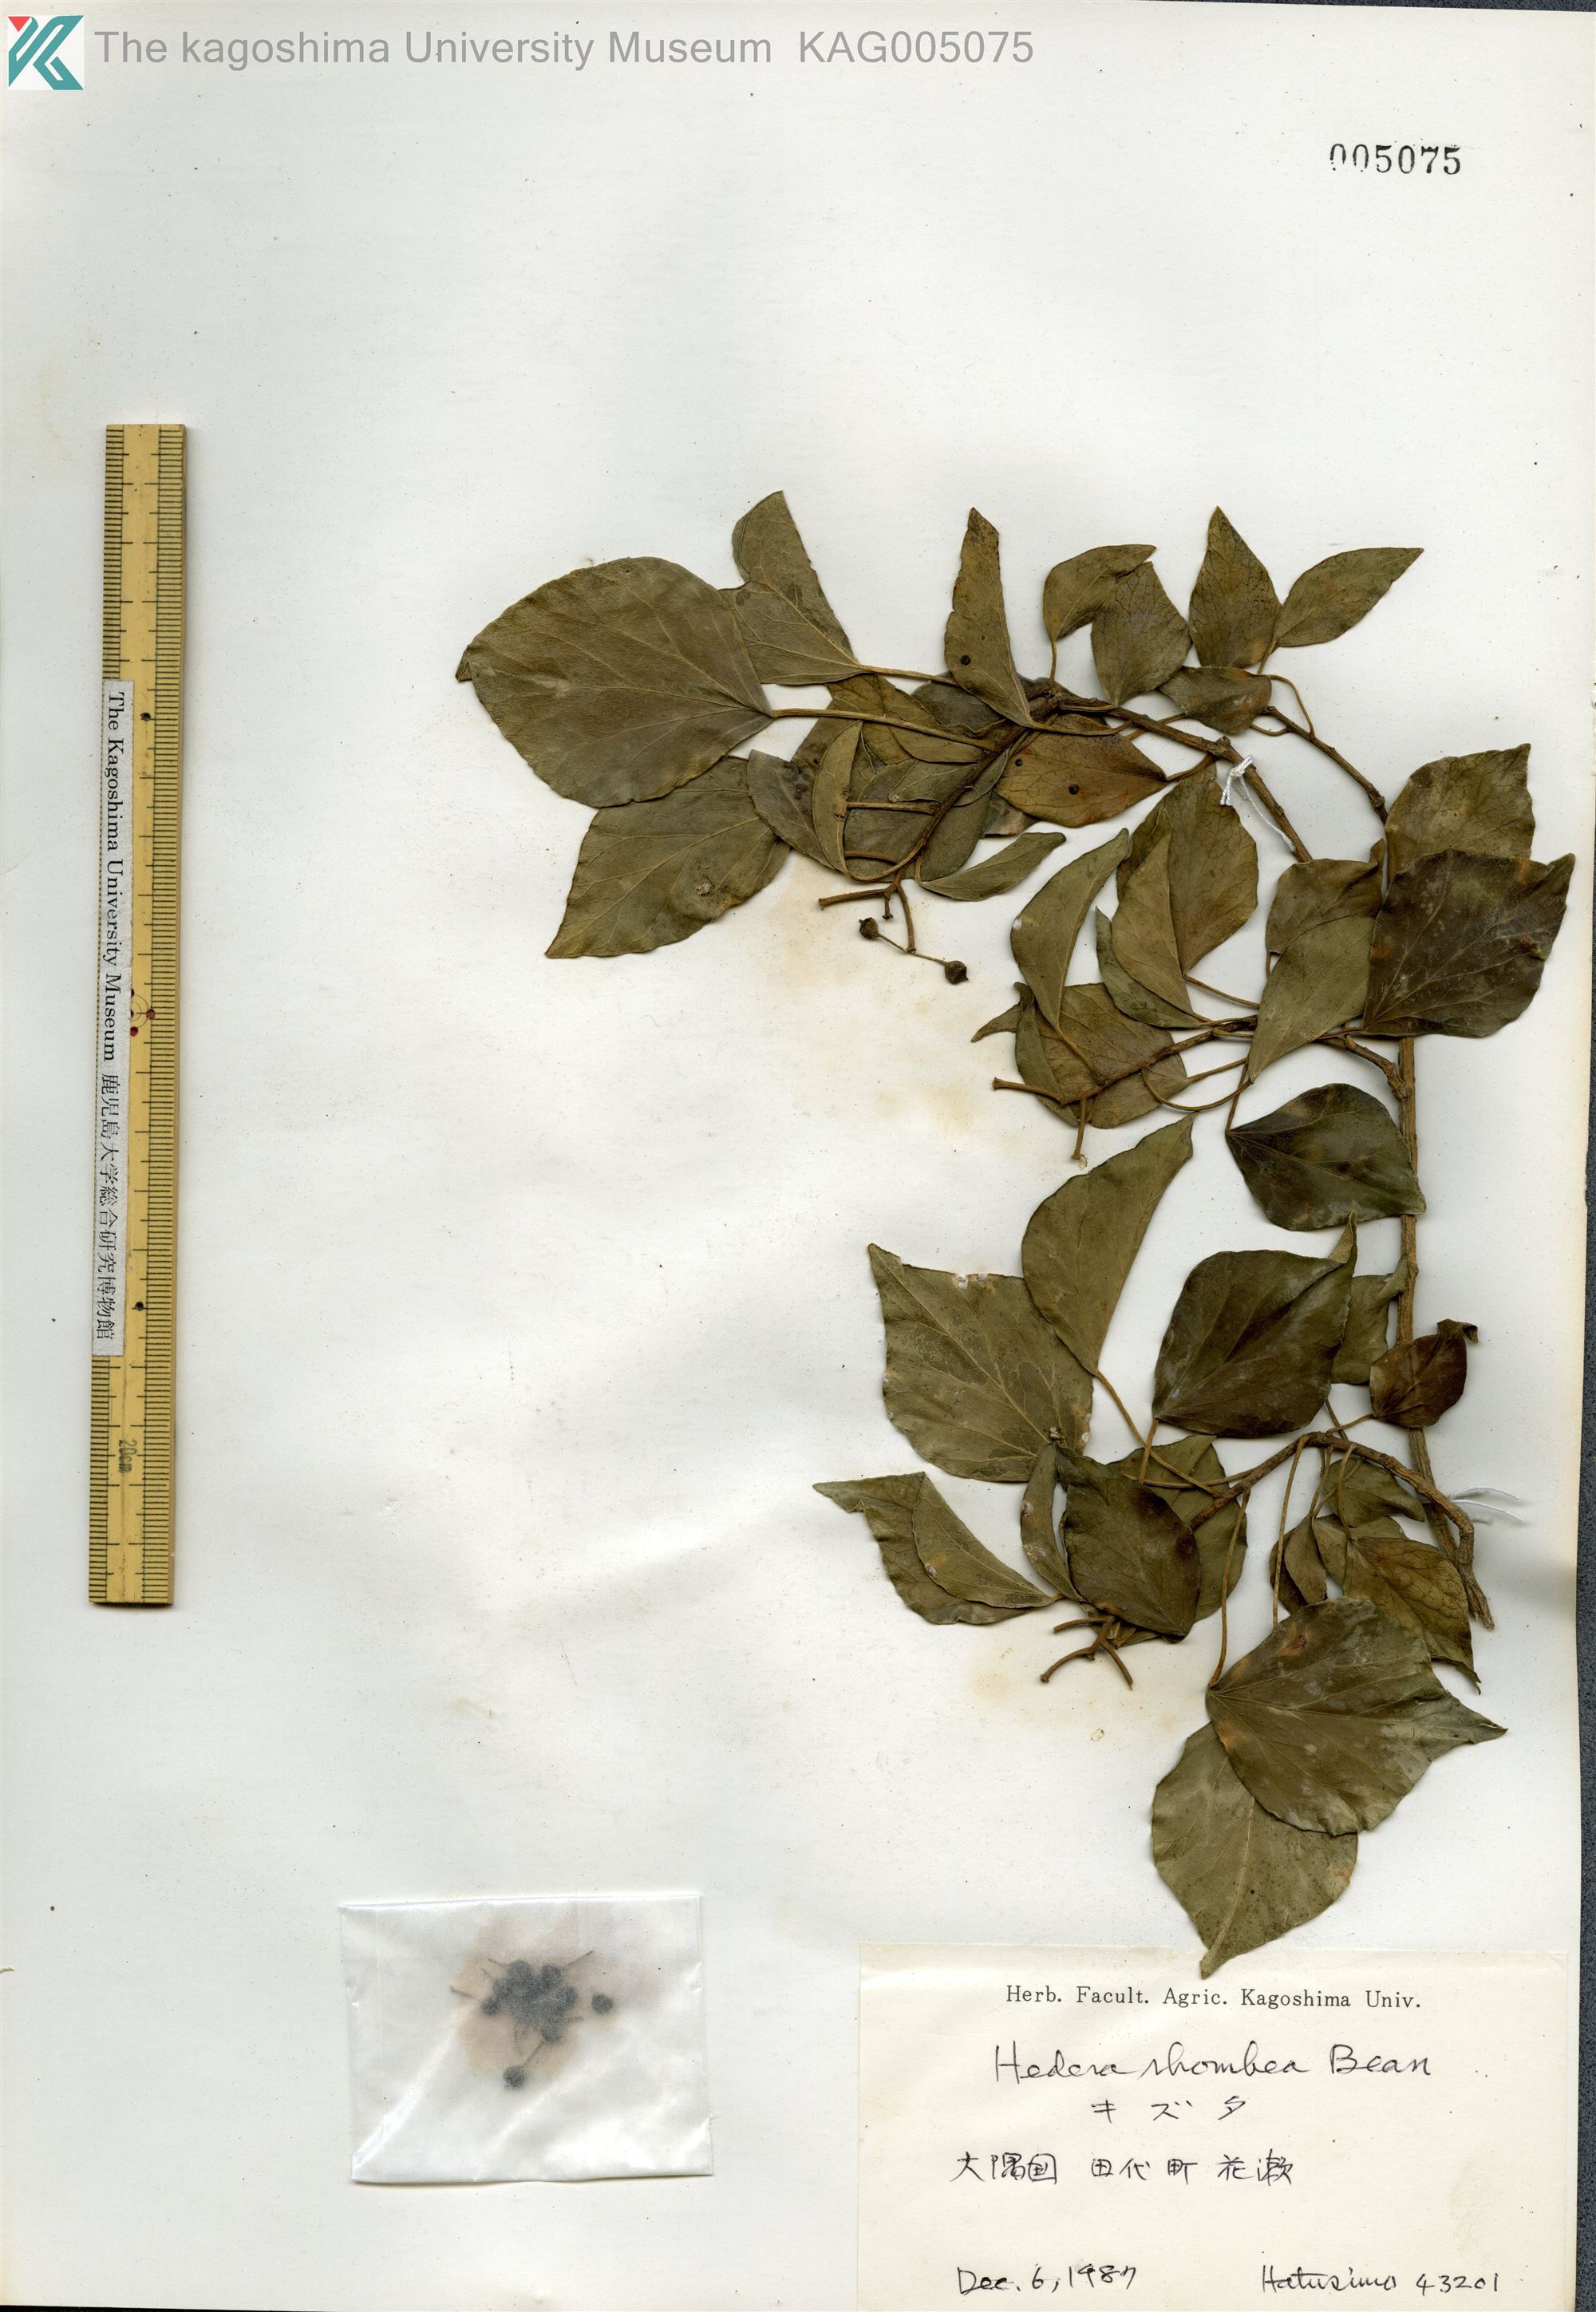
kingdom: Plantae
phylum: Tracheophyta
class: Magnoliopsida
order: Apiales
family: Araliaceae
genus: Hedera
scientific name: Hedera rhombea
